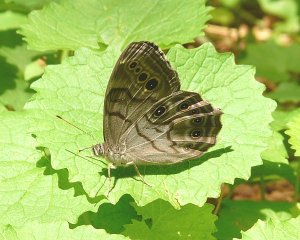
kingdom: Animalia
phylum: Arthropoda
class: Insecta
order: Lepidoptera
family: Nymphalidae
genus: Lethe
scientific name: Lethe anthedon
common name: Northern Pearly-Eye
